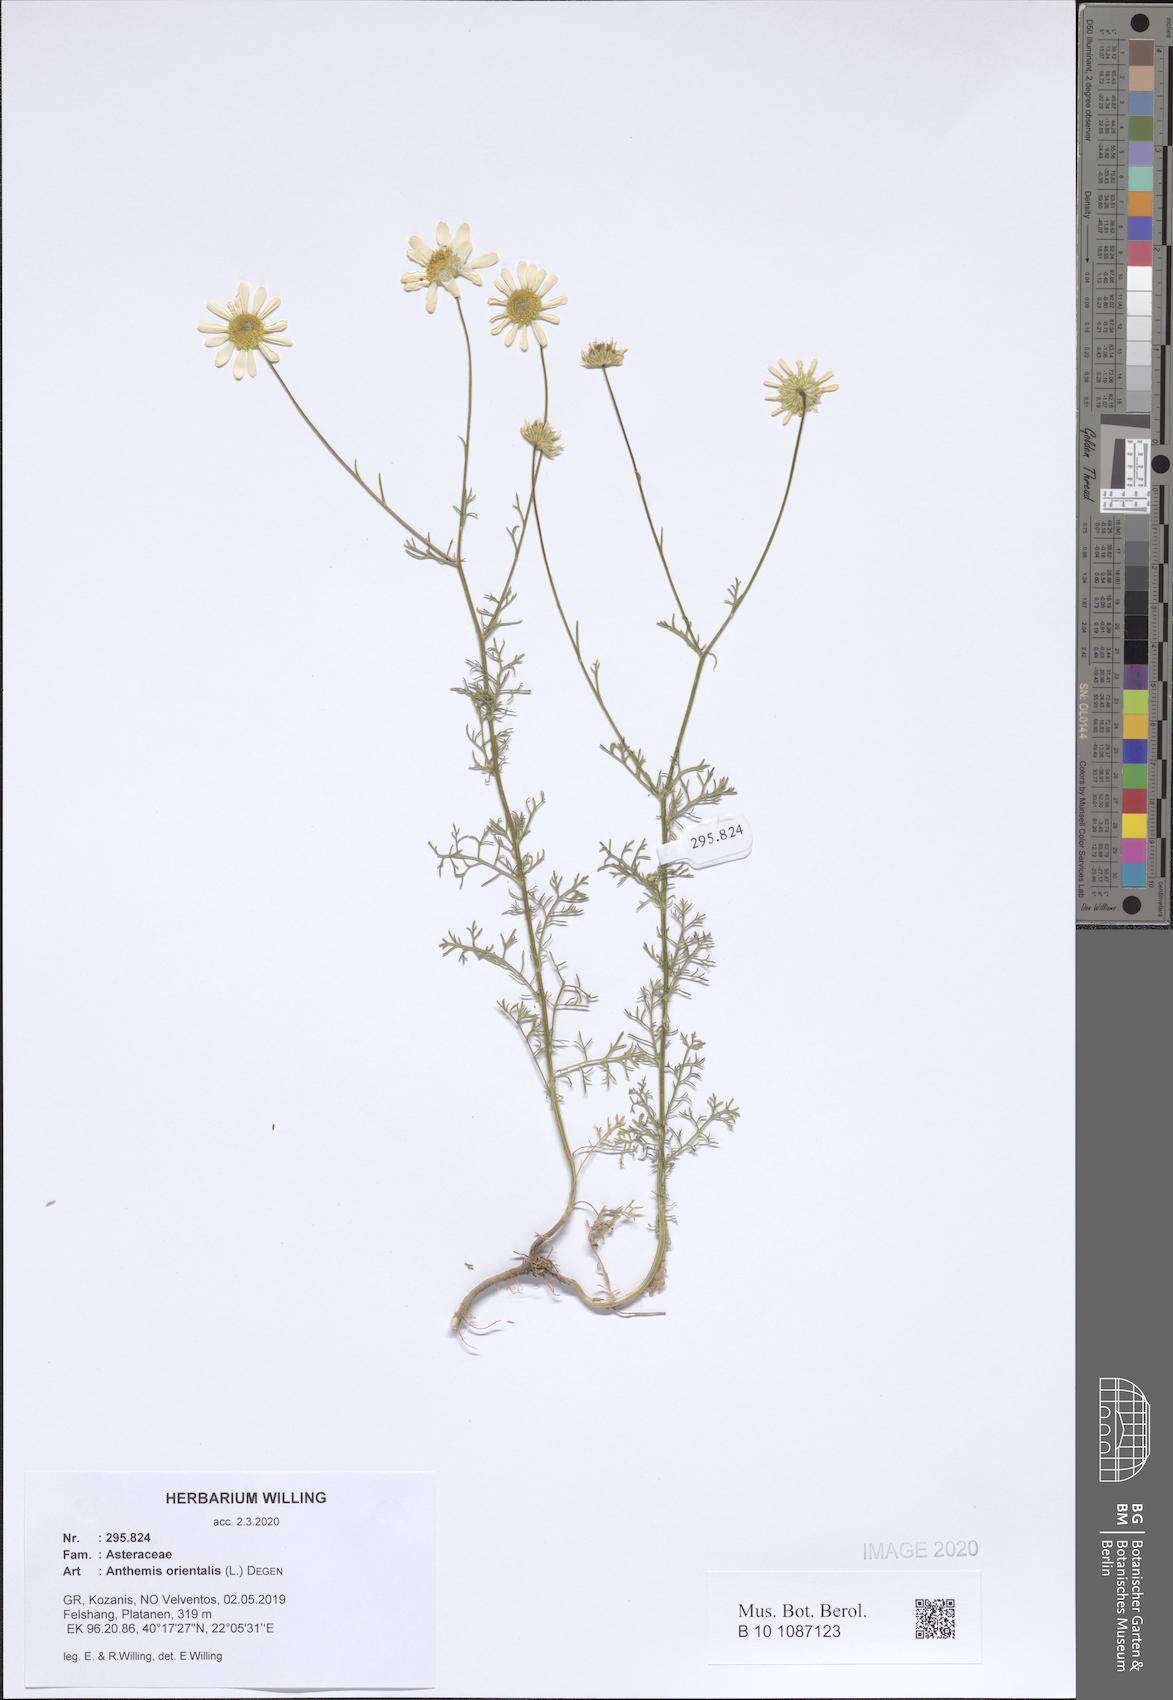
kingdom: Plantae
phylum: Tracheophyta
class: Magnoliopsida
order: Asterales
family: Asteraceae
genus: Anthemis
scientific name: Anthemis orientalis
